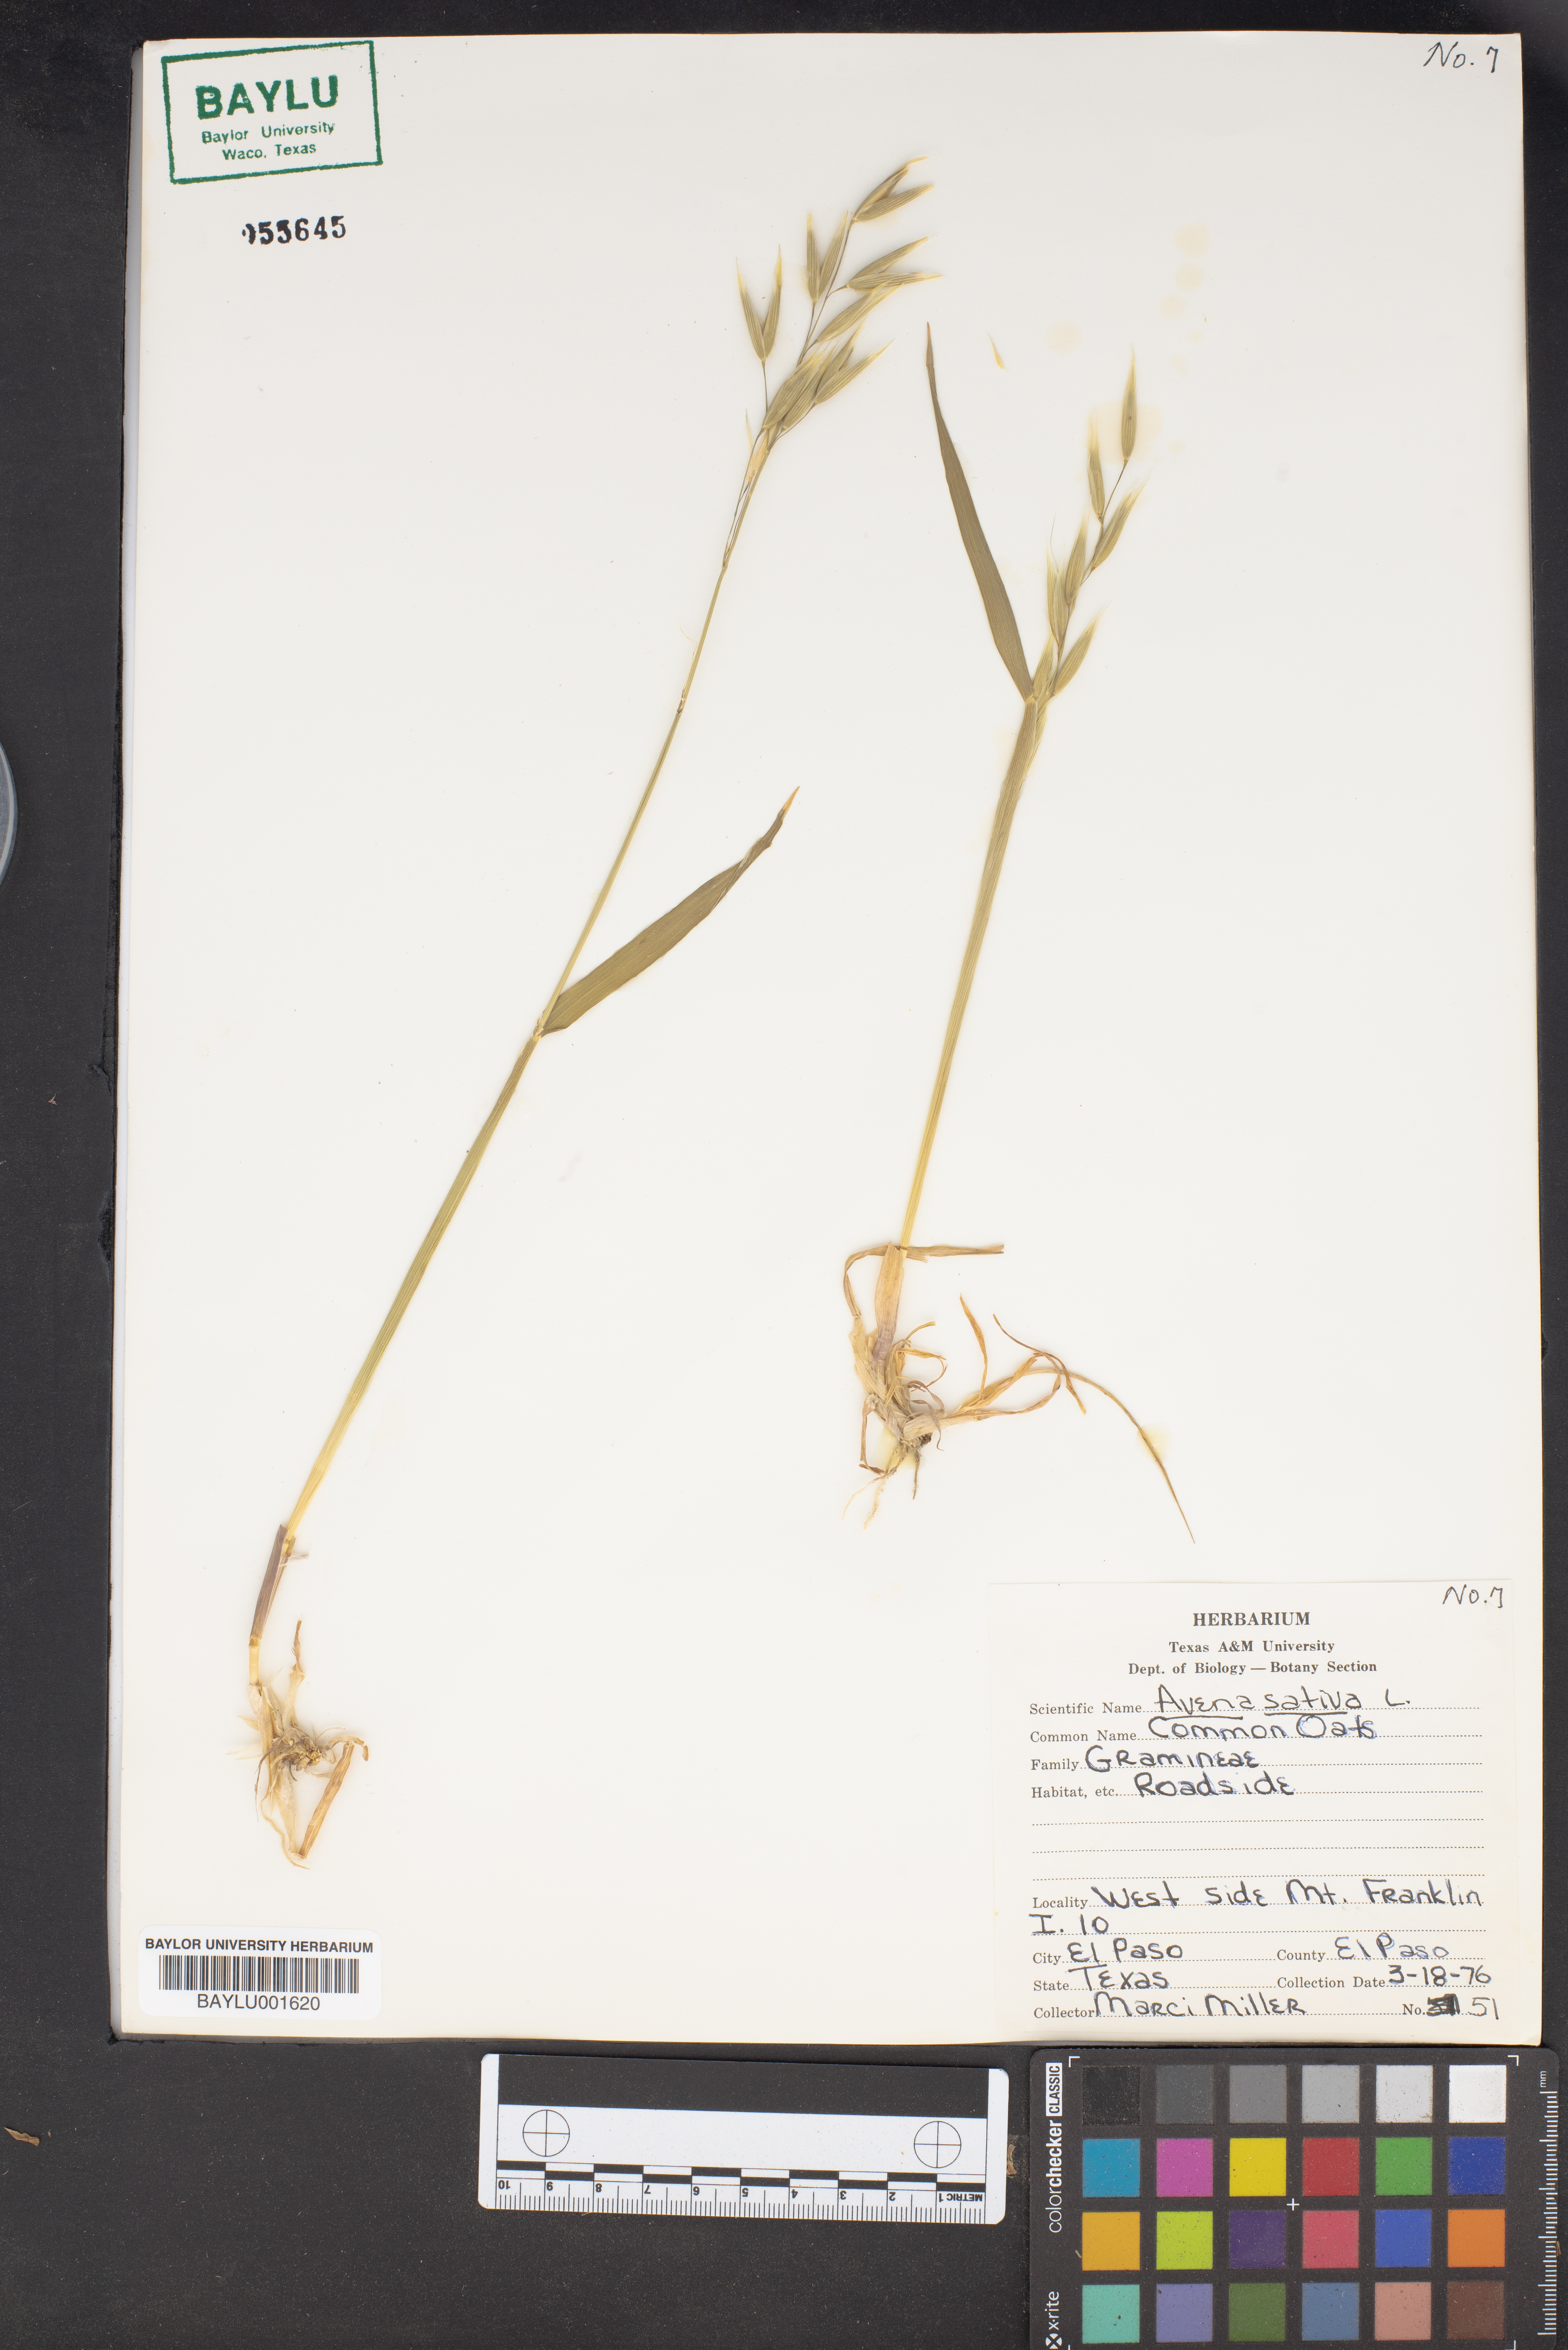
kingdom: Plantae
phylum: Tracheophyta
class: Liliopsida
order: Poales
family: Poaceae
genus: Avena
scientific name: Avena sativa
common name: Oat
